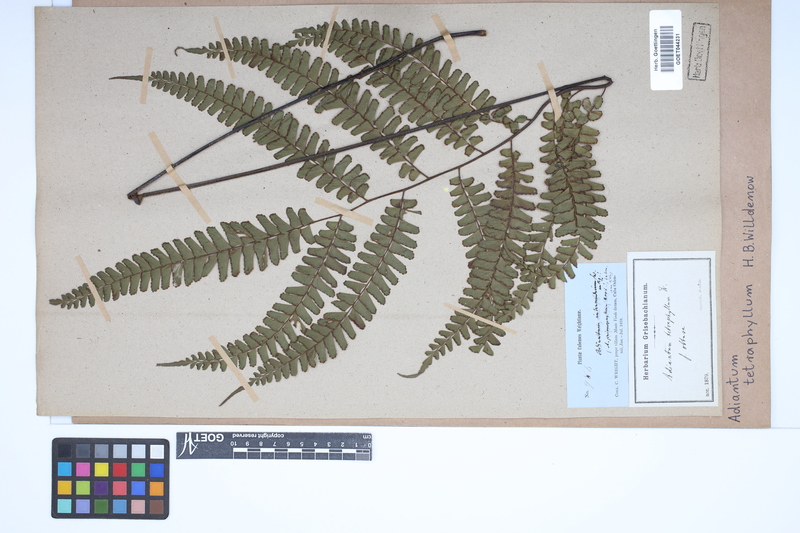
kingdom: Plantae
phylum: Tracheophyta
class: Polypodiopsida
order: Polypodiales
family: Pteridaceae
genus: Adiantum
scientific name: Adiantum tetraphyllum
